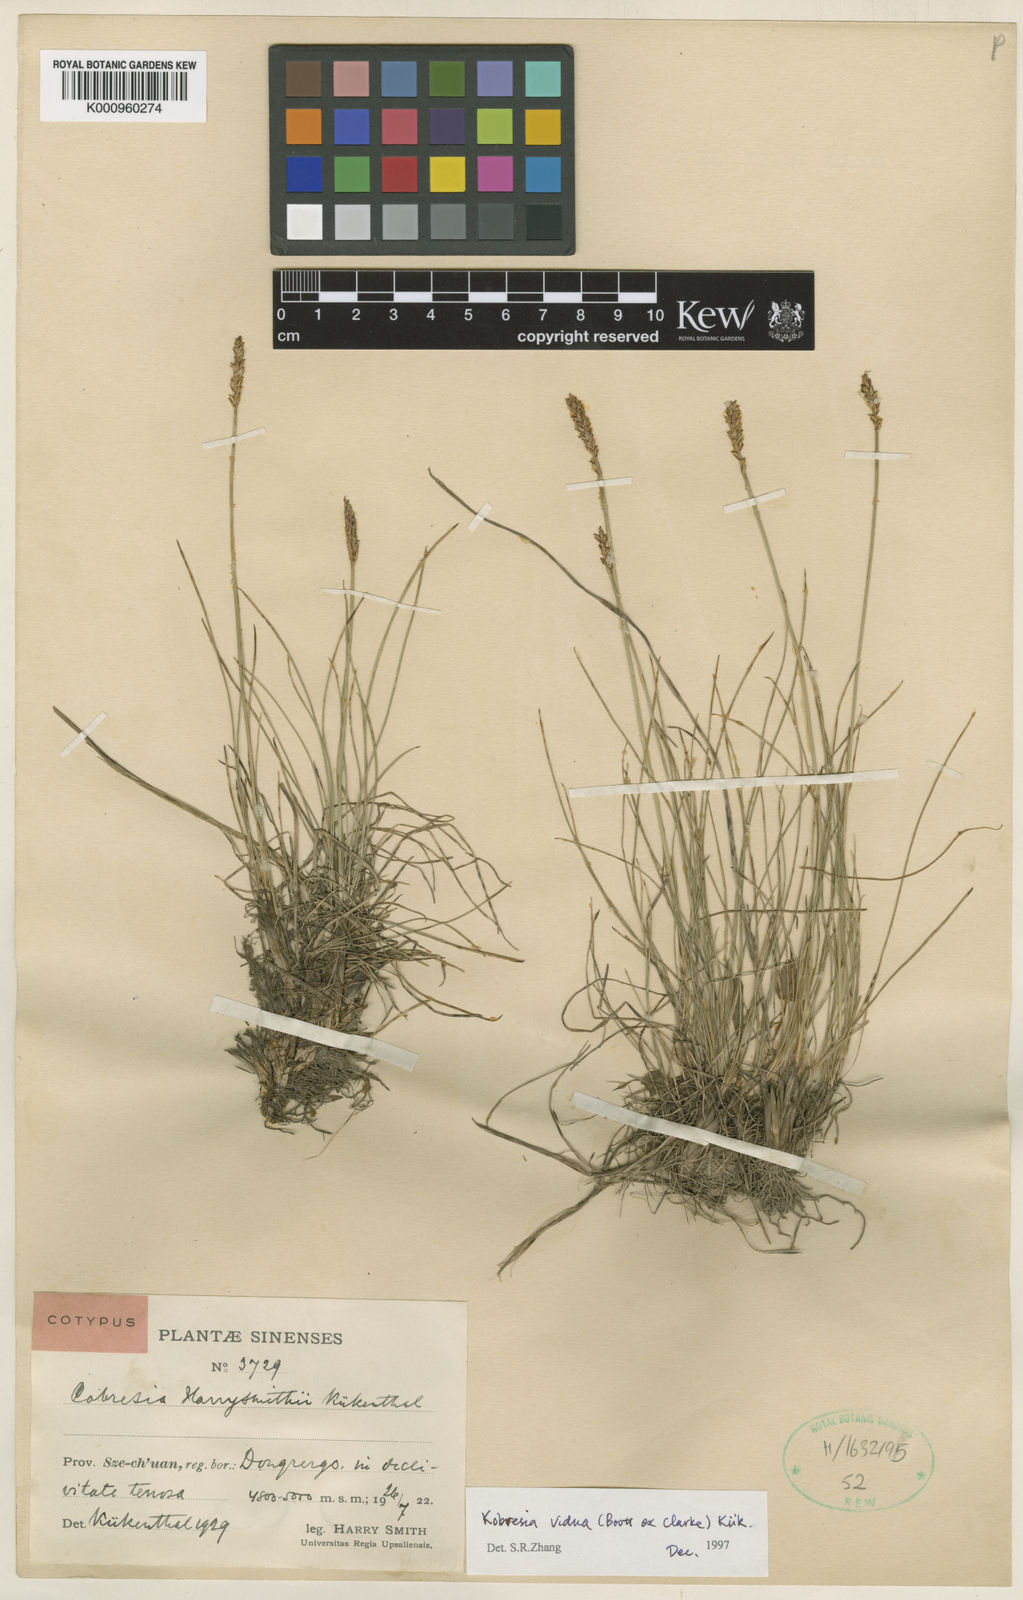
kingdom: Plantae
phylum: Tracheophyta
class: Liliopsida
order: Poales
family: Cyperaceae
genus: Carex
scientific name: Carex
